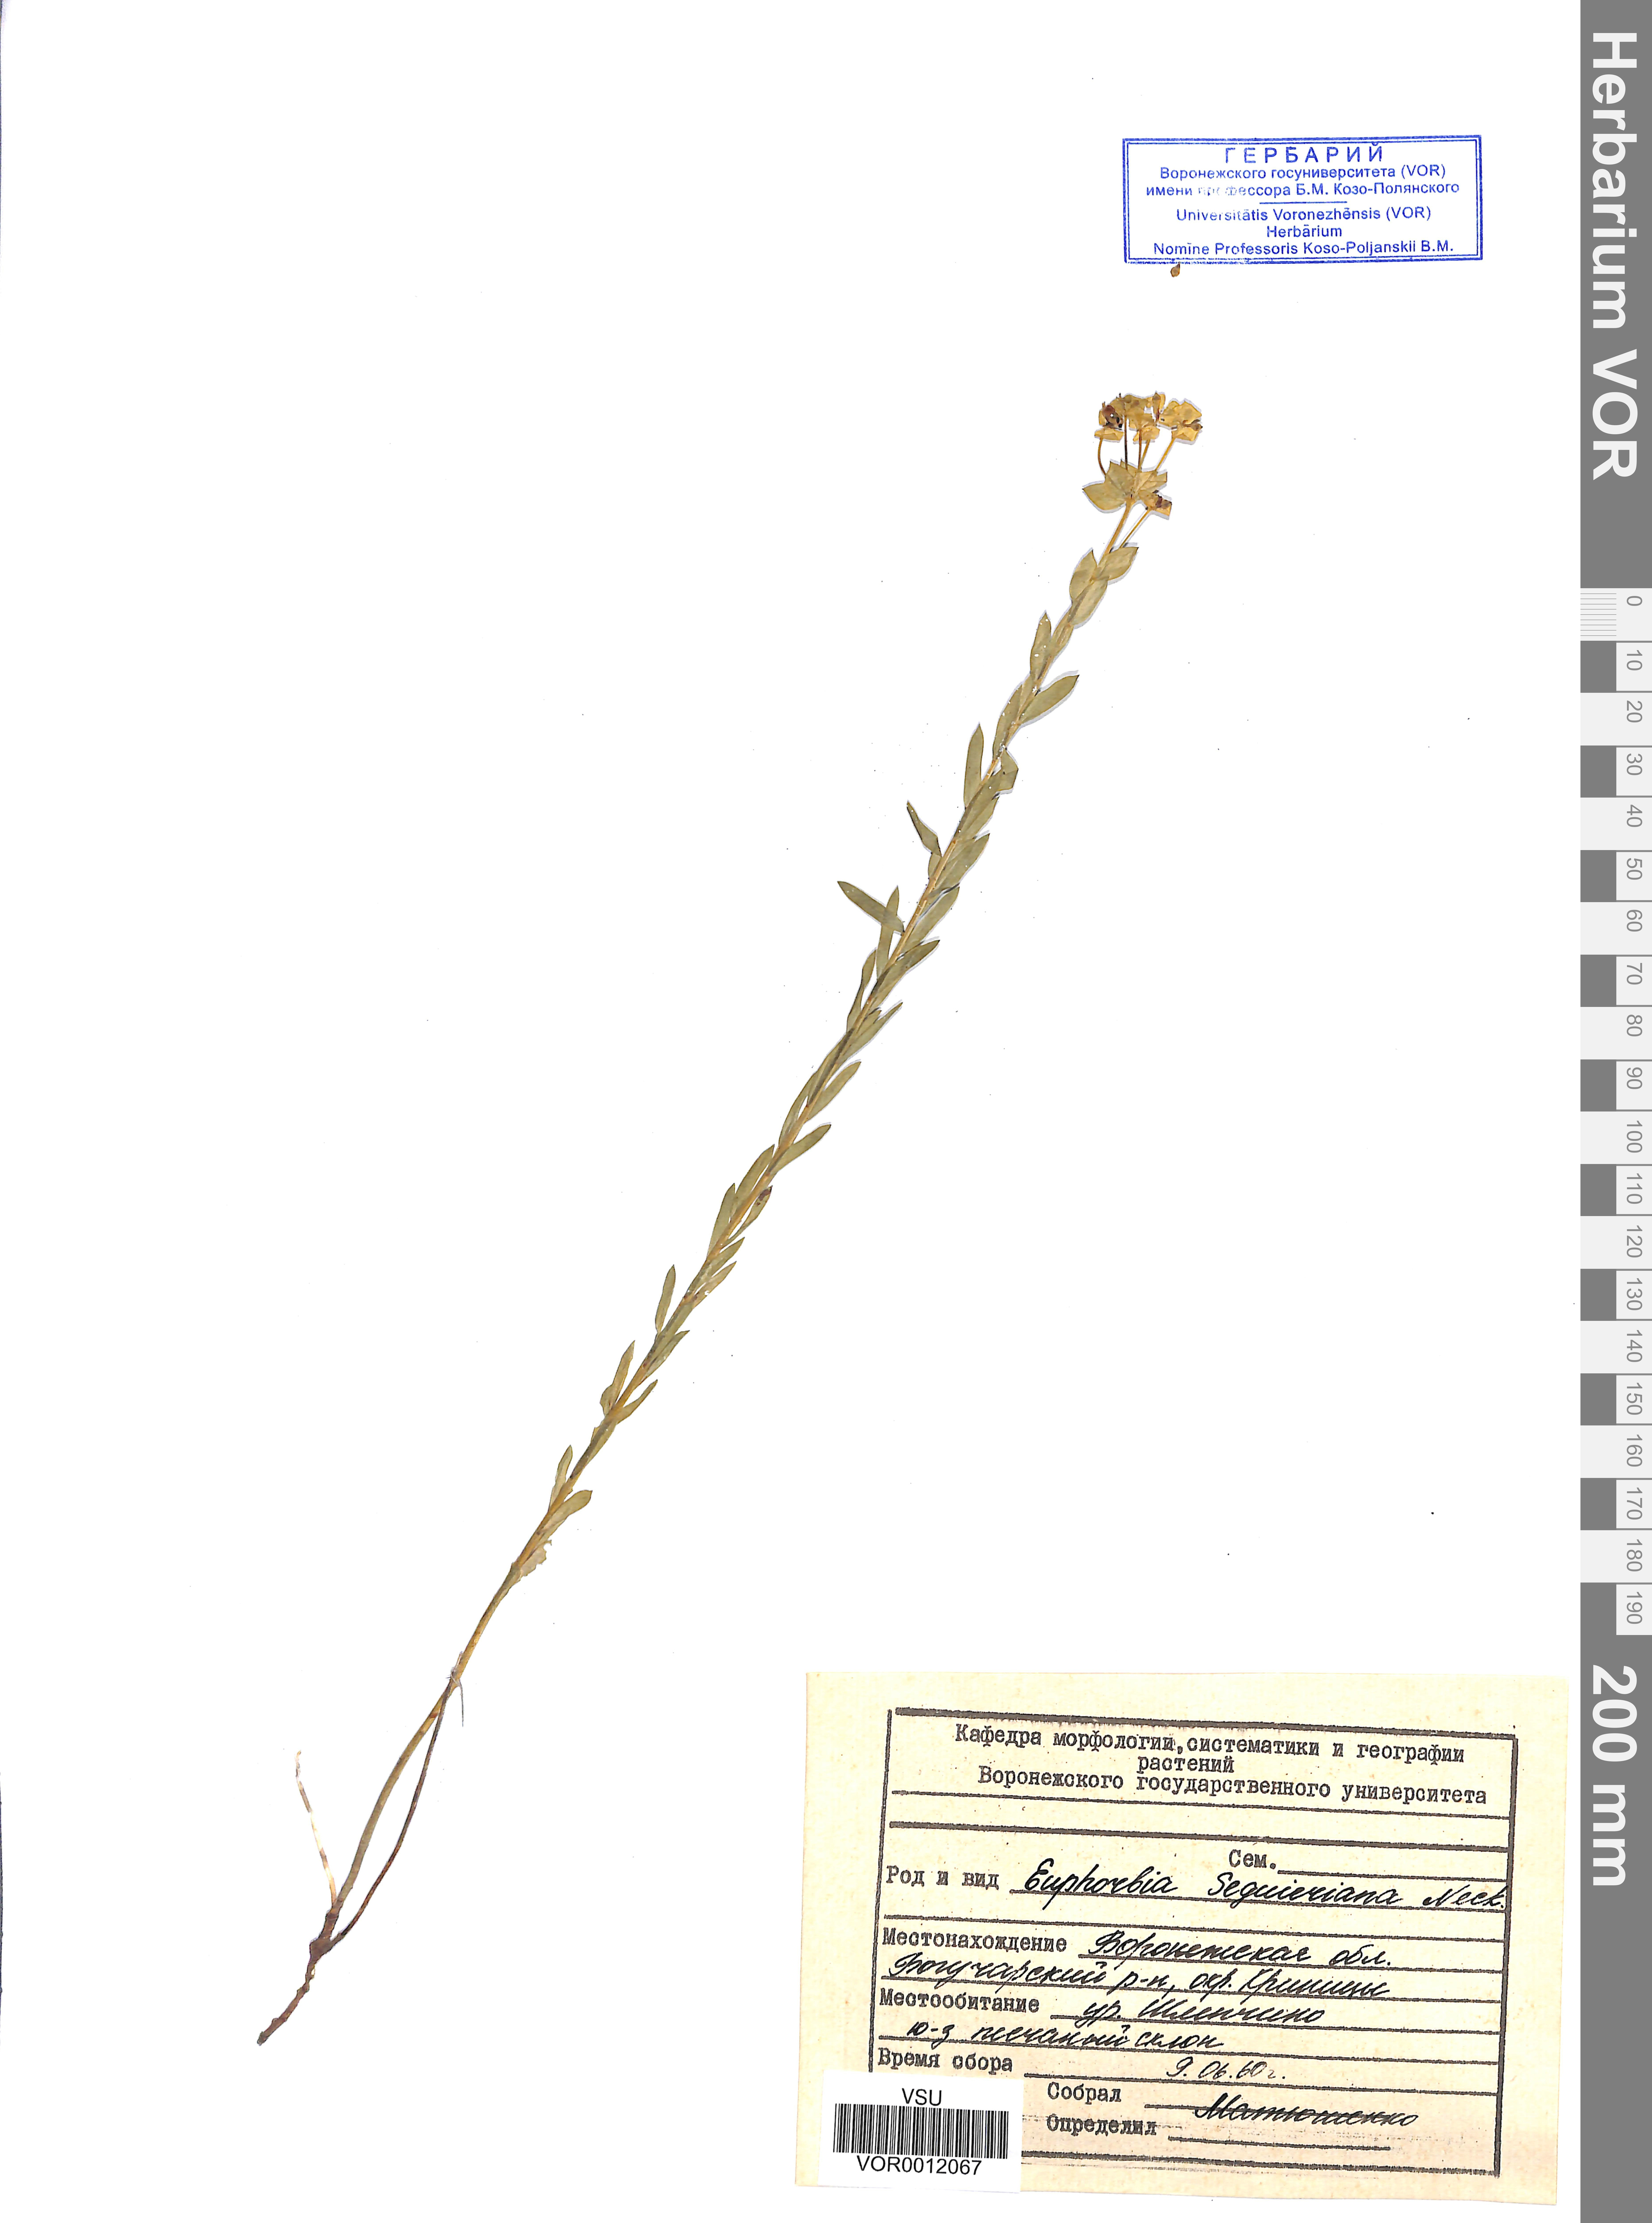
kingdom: Plantae
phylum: Tracheophyta
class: Magnoliopsida
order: Malpighiales
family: Euphorbiaceae
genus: Euphorbia
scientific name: Euphorbia seguieriana
